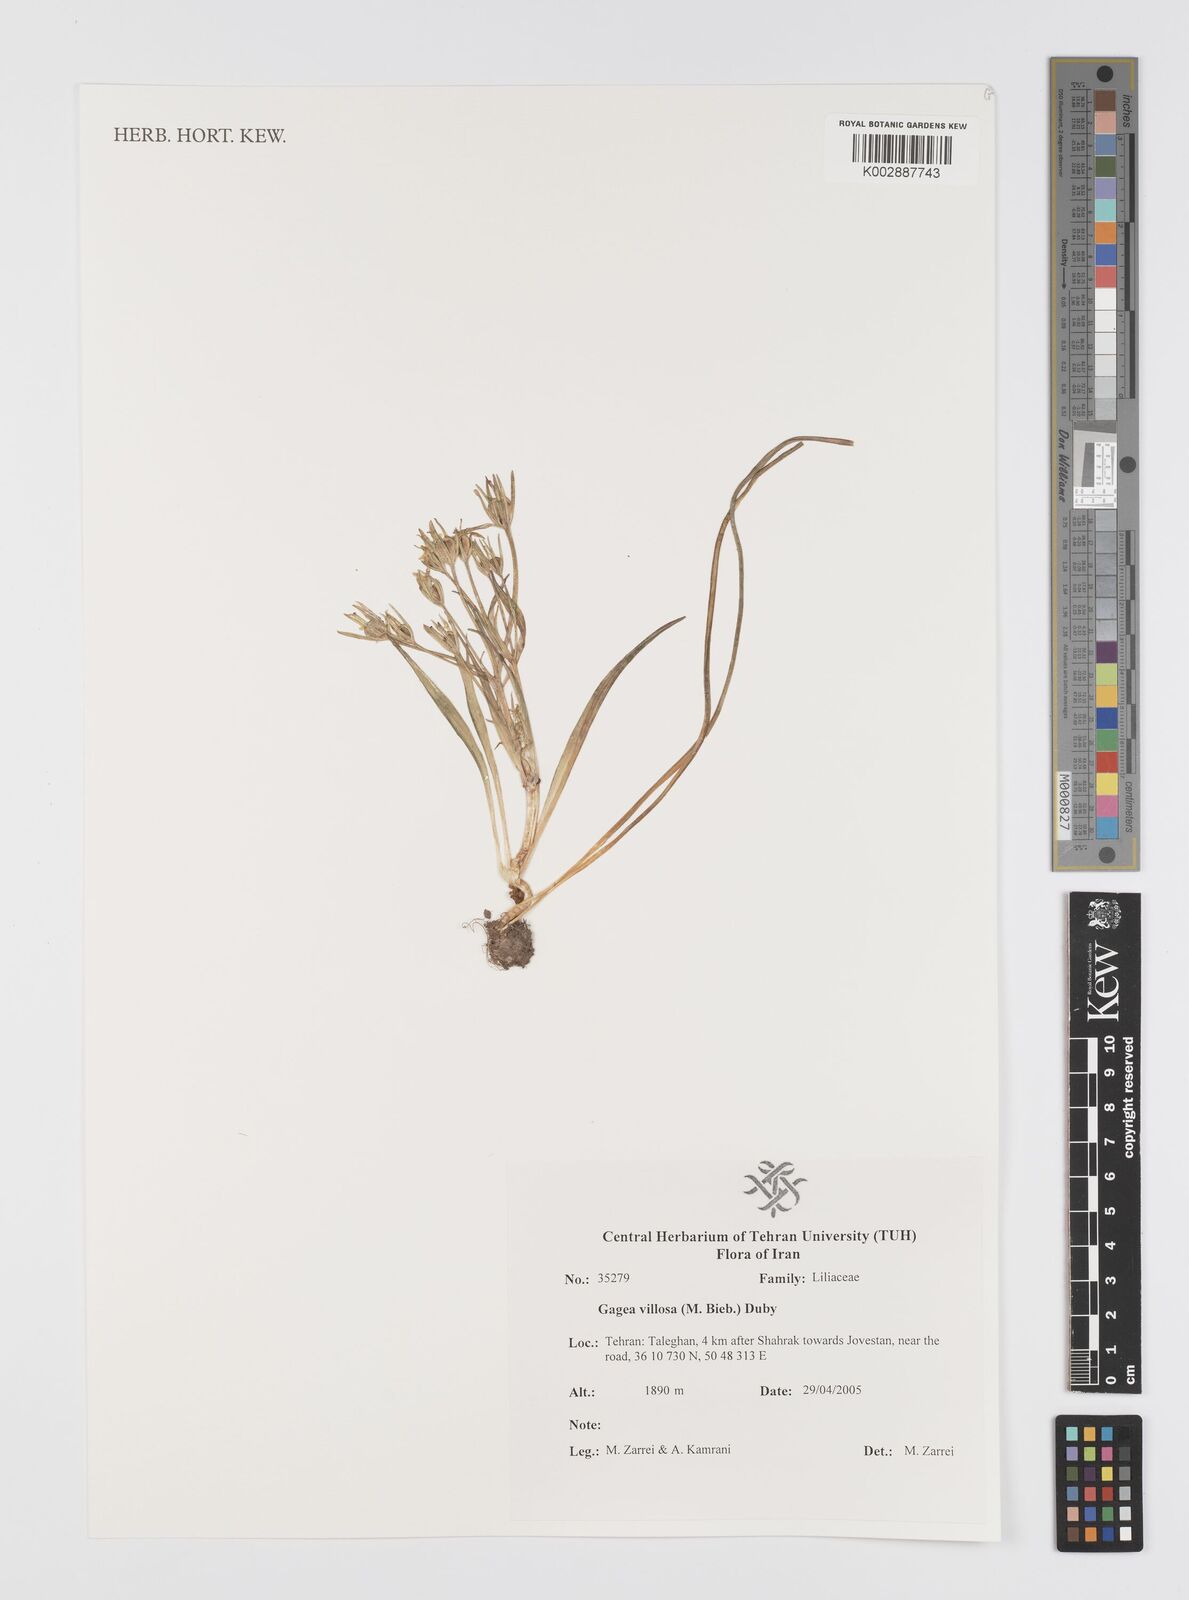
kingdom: Plantae
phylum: Tracheophyta
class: Liliopsida
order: Liliales
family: Liliaceae
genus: Gagea
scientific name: Gagea villosa
